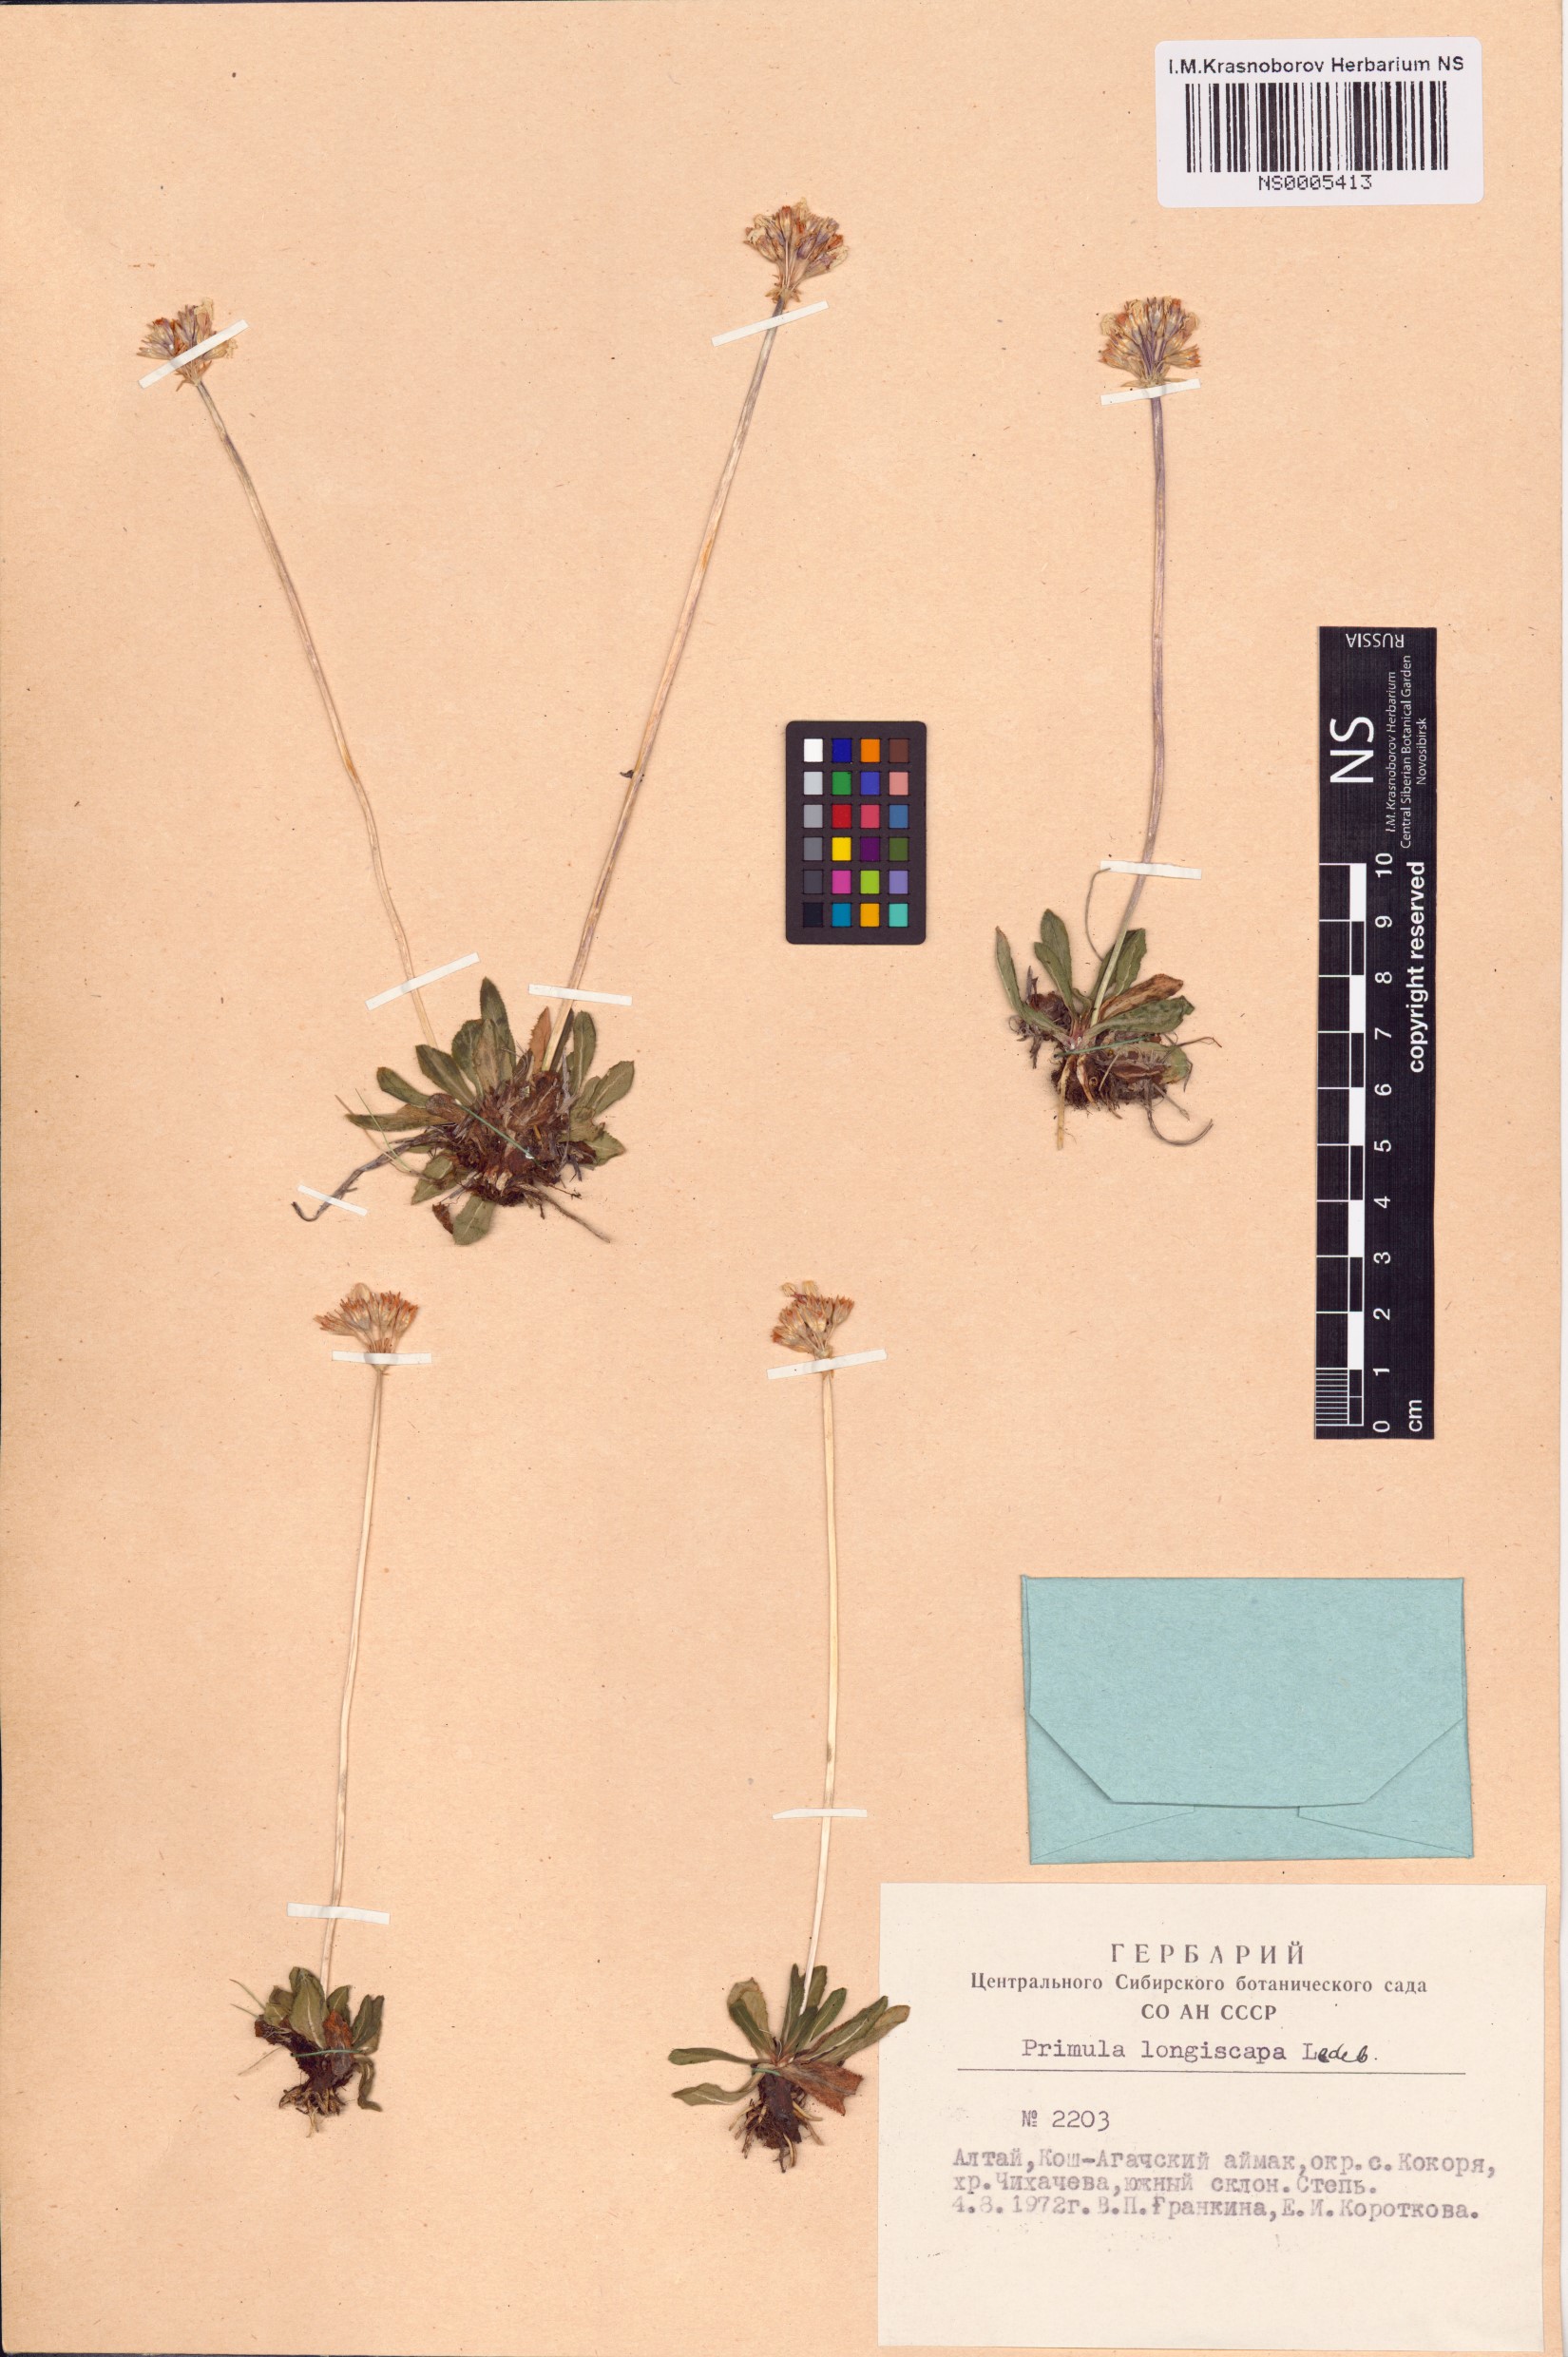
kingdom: Plantae
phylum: Tracheophyta
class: Magnoliopsida
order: Ericales
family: Primulaceae
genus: Primula
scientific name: Primula longiscapa
